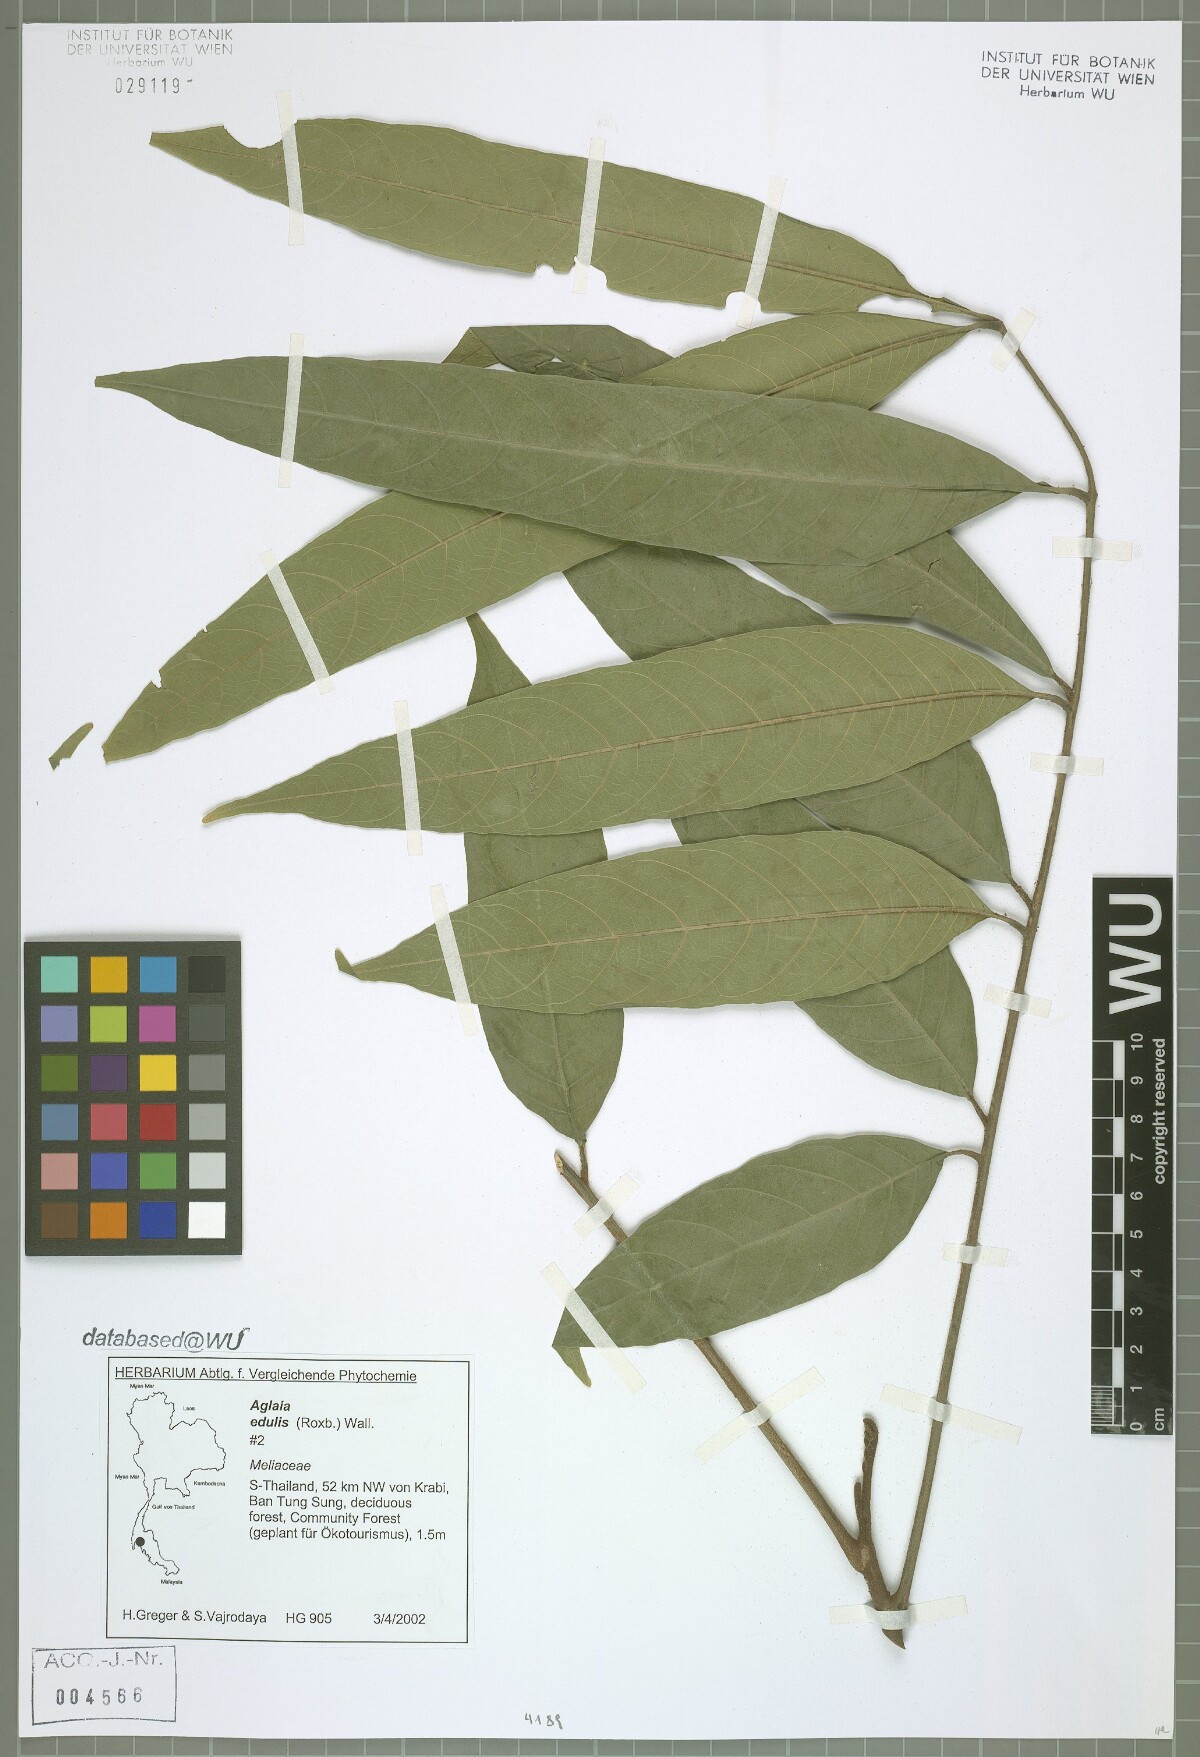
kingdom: Plantae
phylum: Tracheophyta
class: Magnoliopsida
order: Sapindales
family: Meliaceae
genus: Aglaia
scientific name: Aglaia edulis
